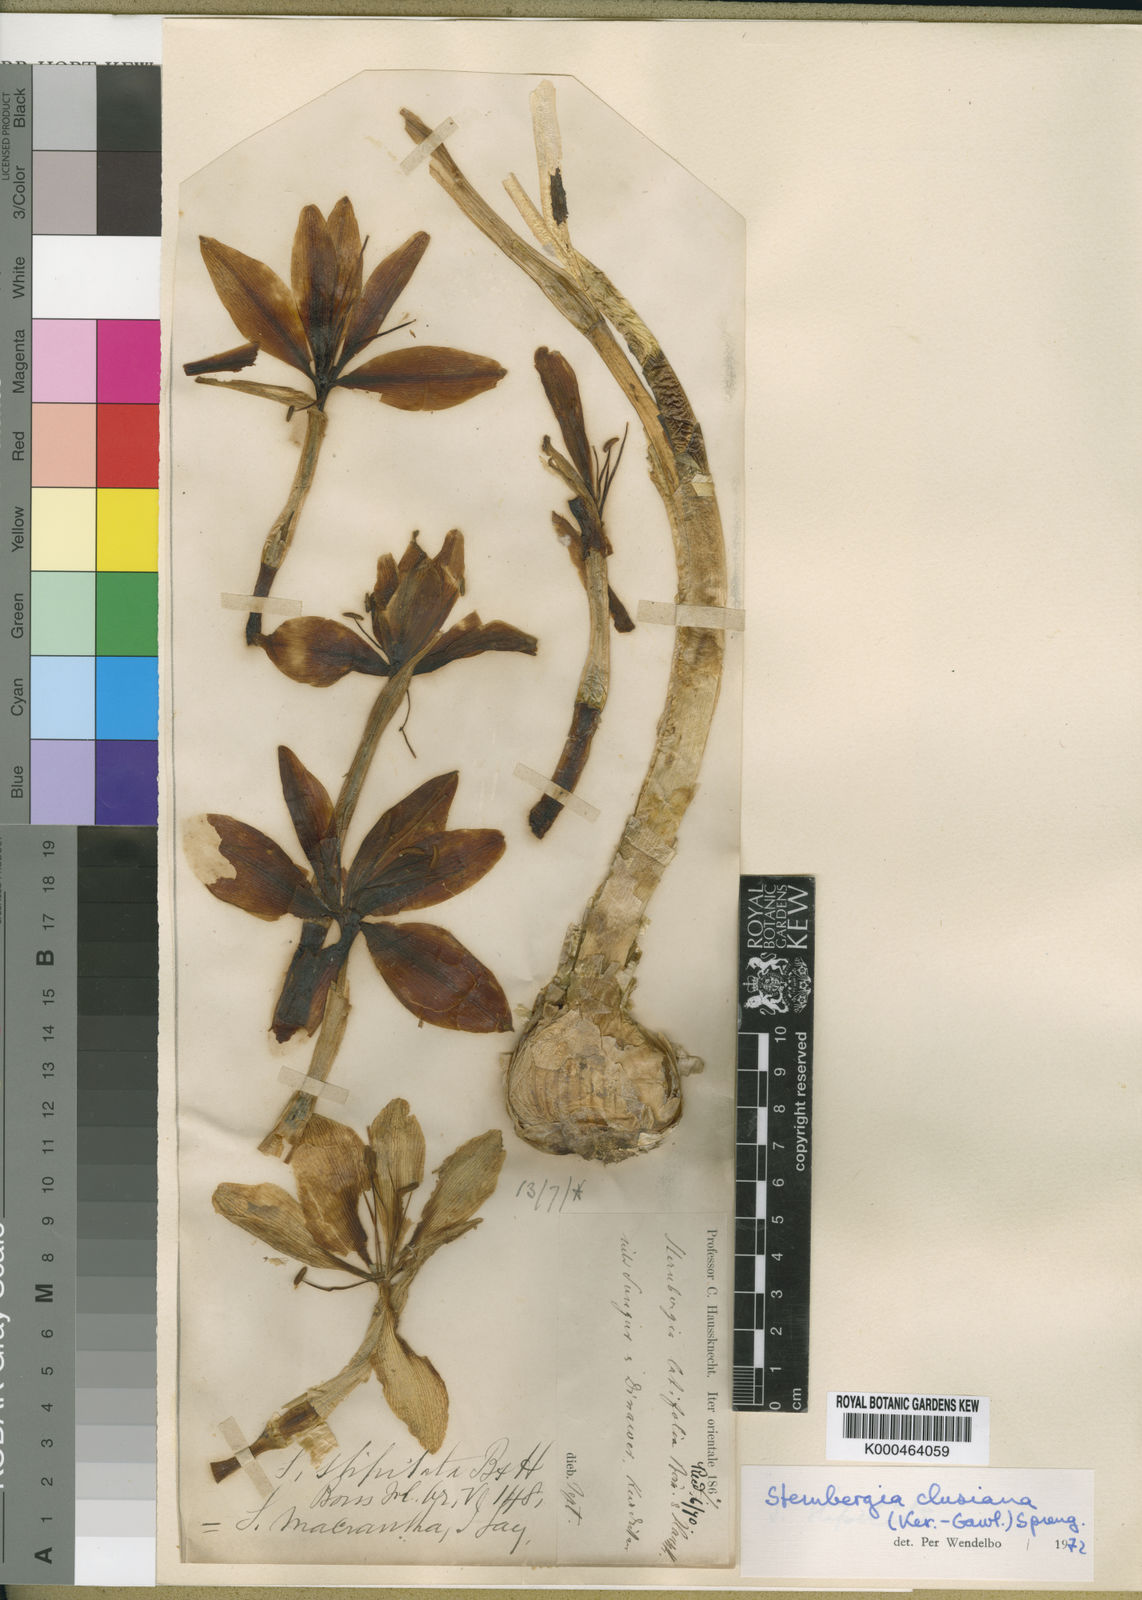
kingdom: Plantae
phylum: Tracheophyta
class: Liliopsida
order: Asparagales
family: Amaryllidaceae
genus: Sternbergia
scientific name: Sternbergia clusiana
